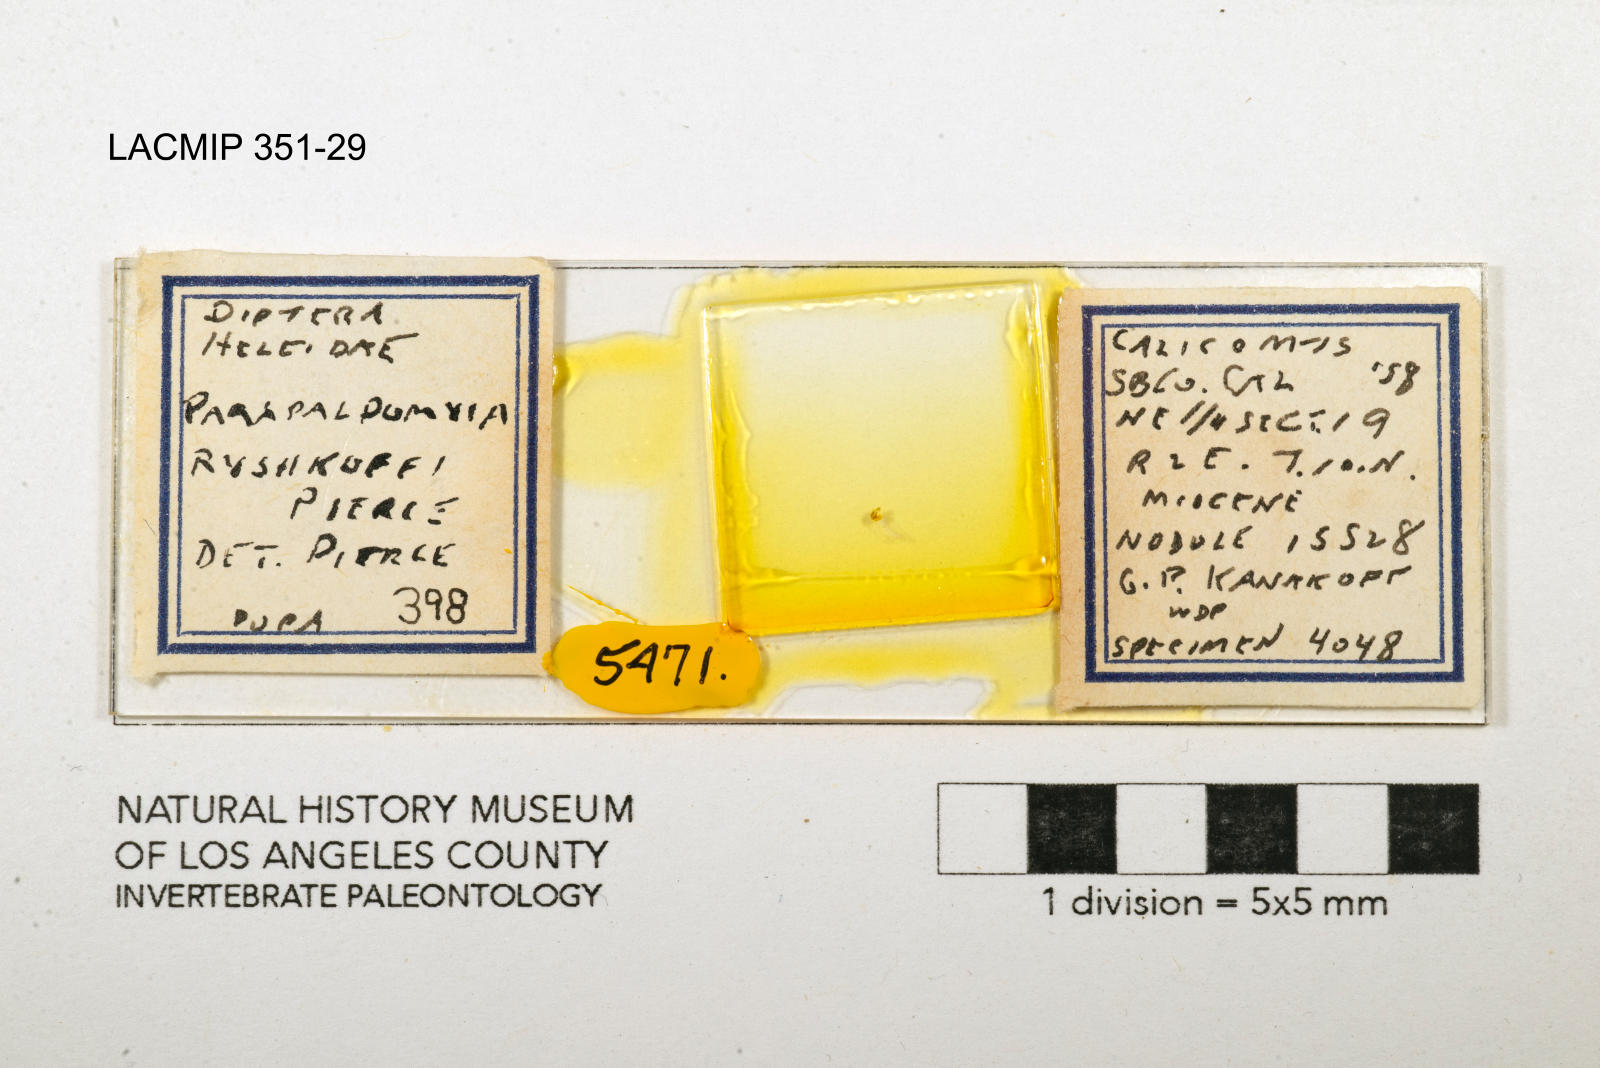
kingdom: Animalia
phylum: Arthropoda
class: Insecta
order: Diptera
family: Ceratopogonidae
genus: Palpomyia
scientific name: Palpomyia ryshkoffi
